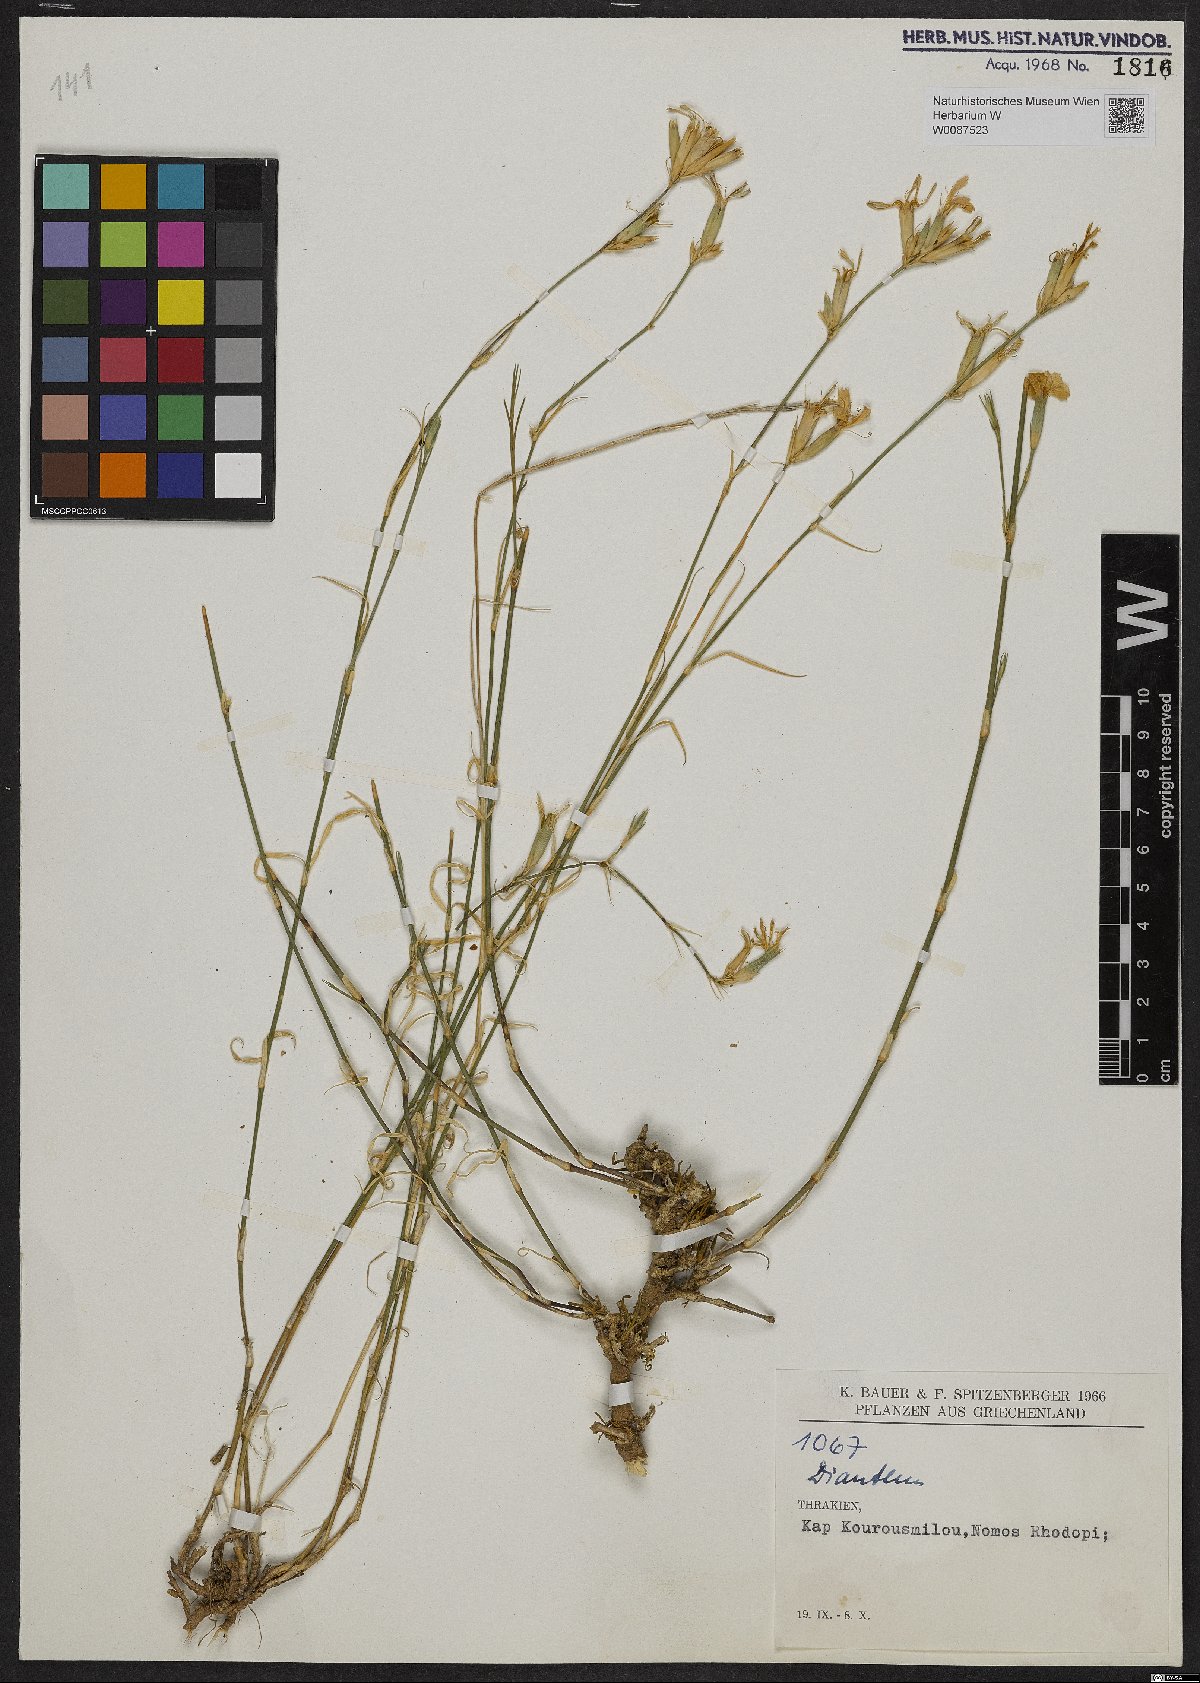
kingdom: Plantae
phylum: Tracheophyta
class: Magnoliopsida
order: Caryophyllales
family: Caryophyllaceae
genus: Dianthus
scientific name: Dianthus
